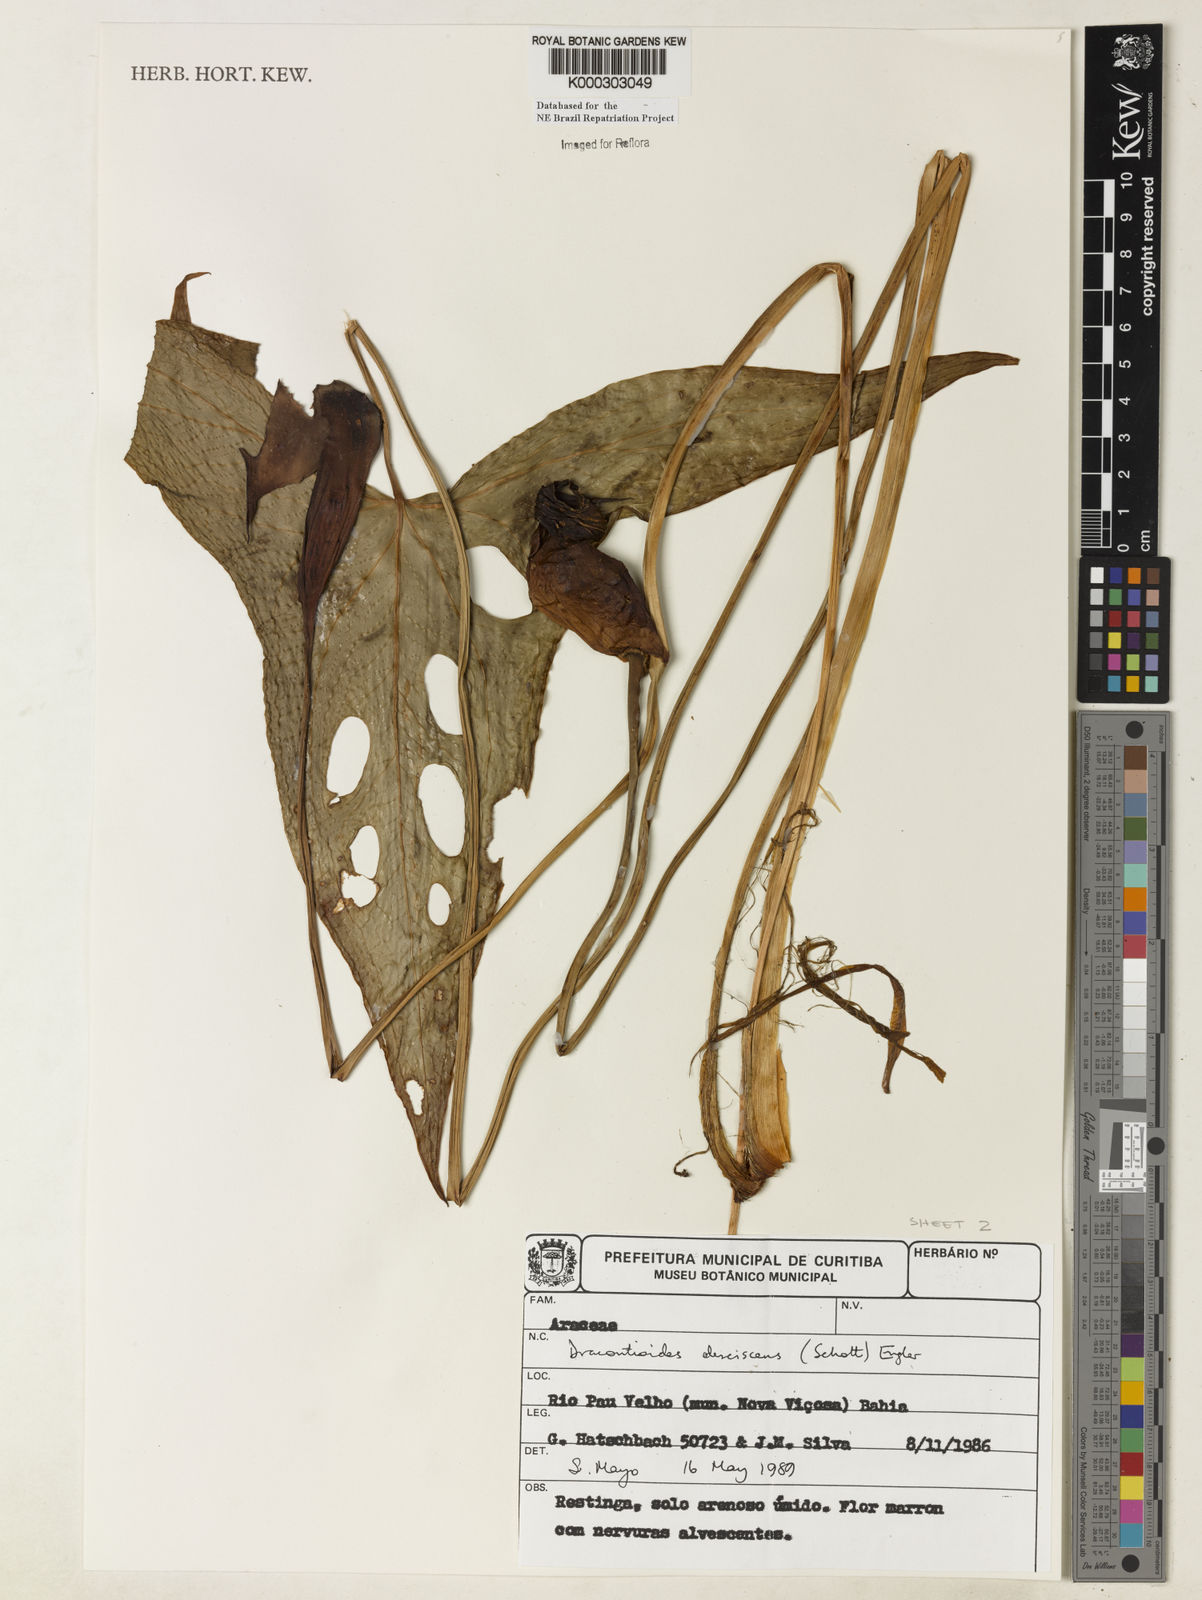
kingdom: Plantae
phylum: Tracheophyta
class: Liliopsida
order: Alismatales
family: Araceae
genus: Dracontioides
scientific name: Dracontioides desciscens
